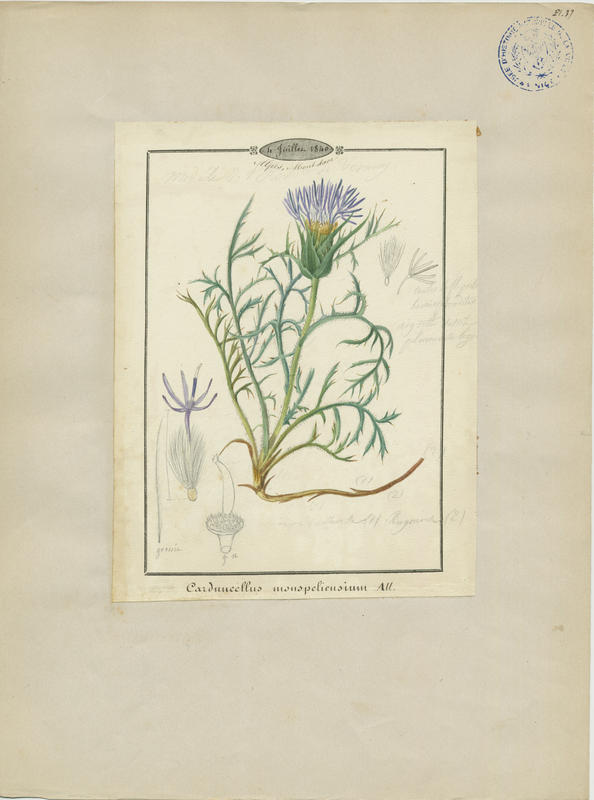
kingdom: Plantae
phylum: Tracheophyta
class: Magnoliopsida
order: Asterales
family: Asteraceae
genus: Carduncellus
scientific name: Carduncellus monspelliensium
